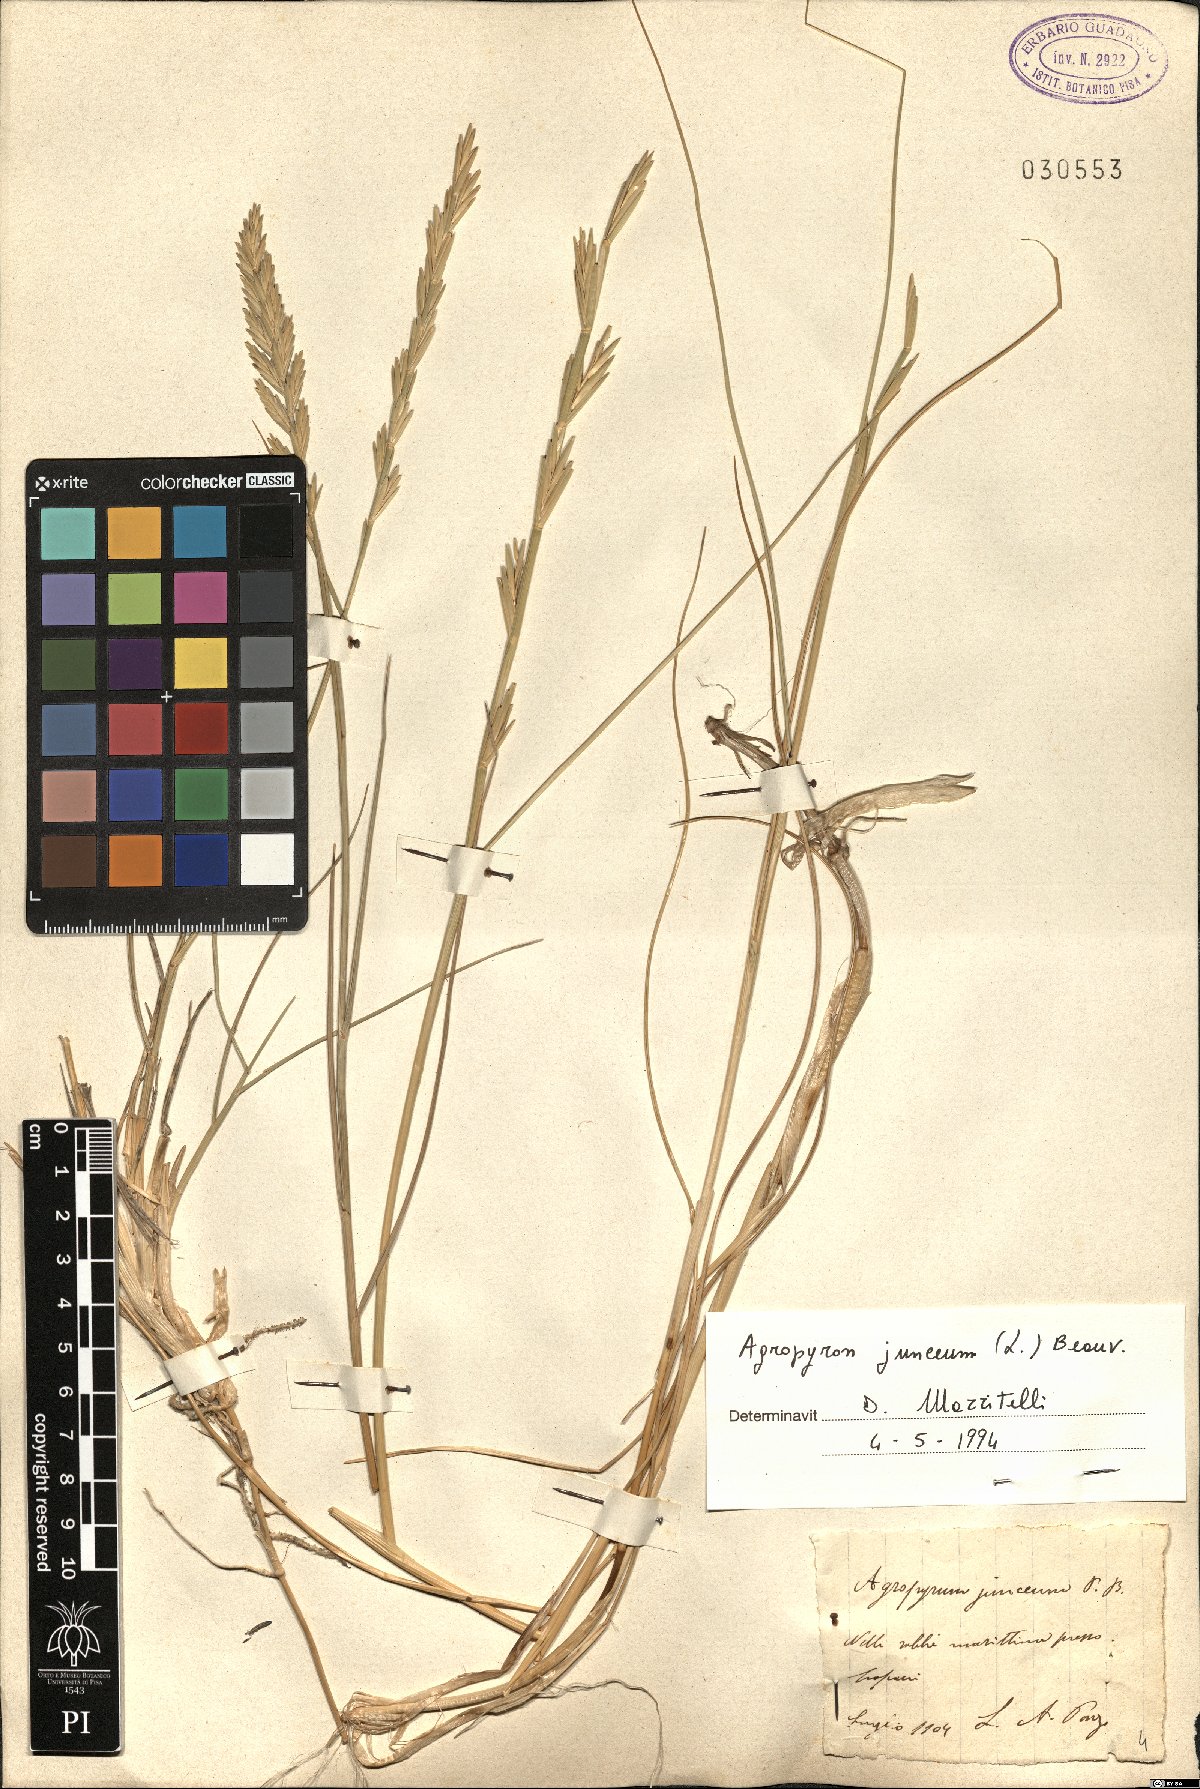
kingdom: Plantae
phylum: Tracheophyta
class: Liliopsida
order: Poales
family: Poaceae
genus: Thinopyrum
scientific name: Thinopyrum junceum
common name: Russian wheatgrass
